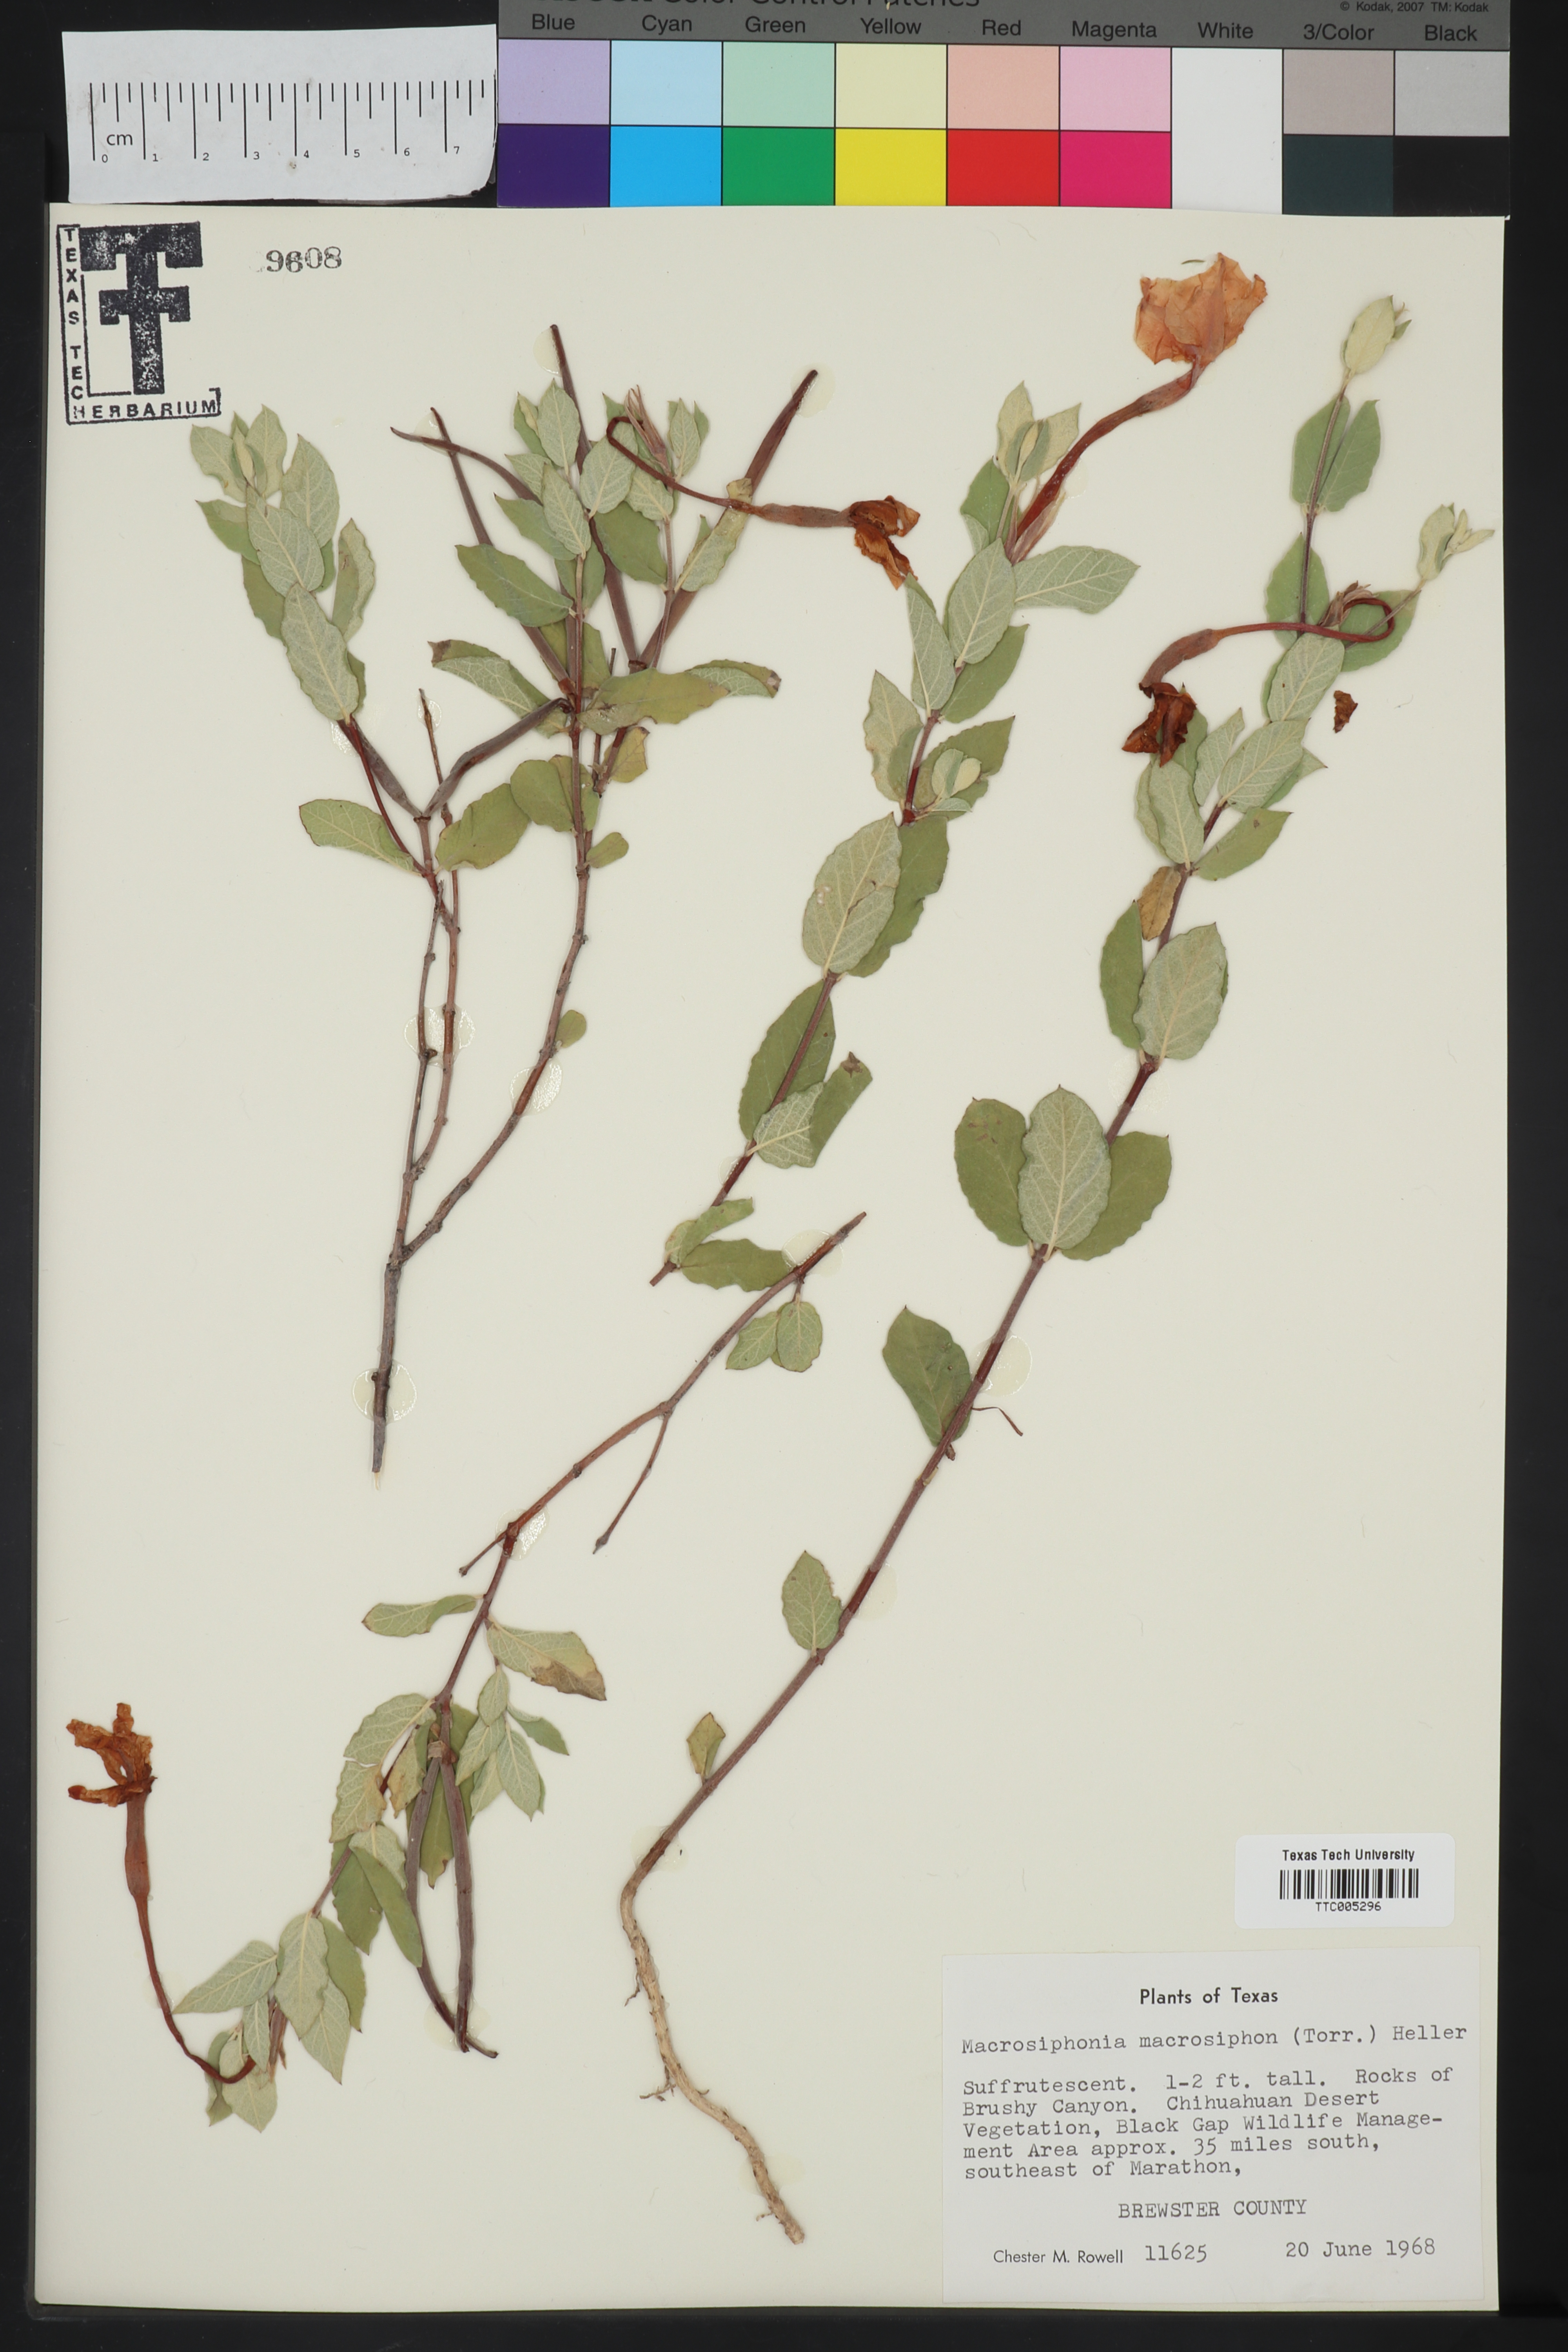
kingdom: Plantae
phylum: Tracheophyta
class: Magnoliopsida
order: Gentianales
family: Apocynaceae
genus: Mandevilla
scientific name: Mandevilla macrosiphon
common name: Plateau rocktrumpet
